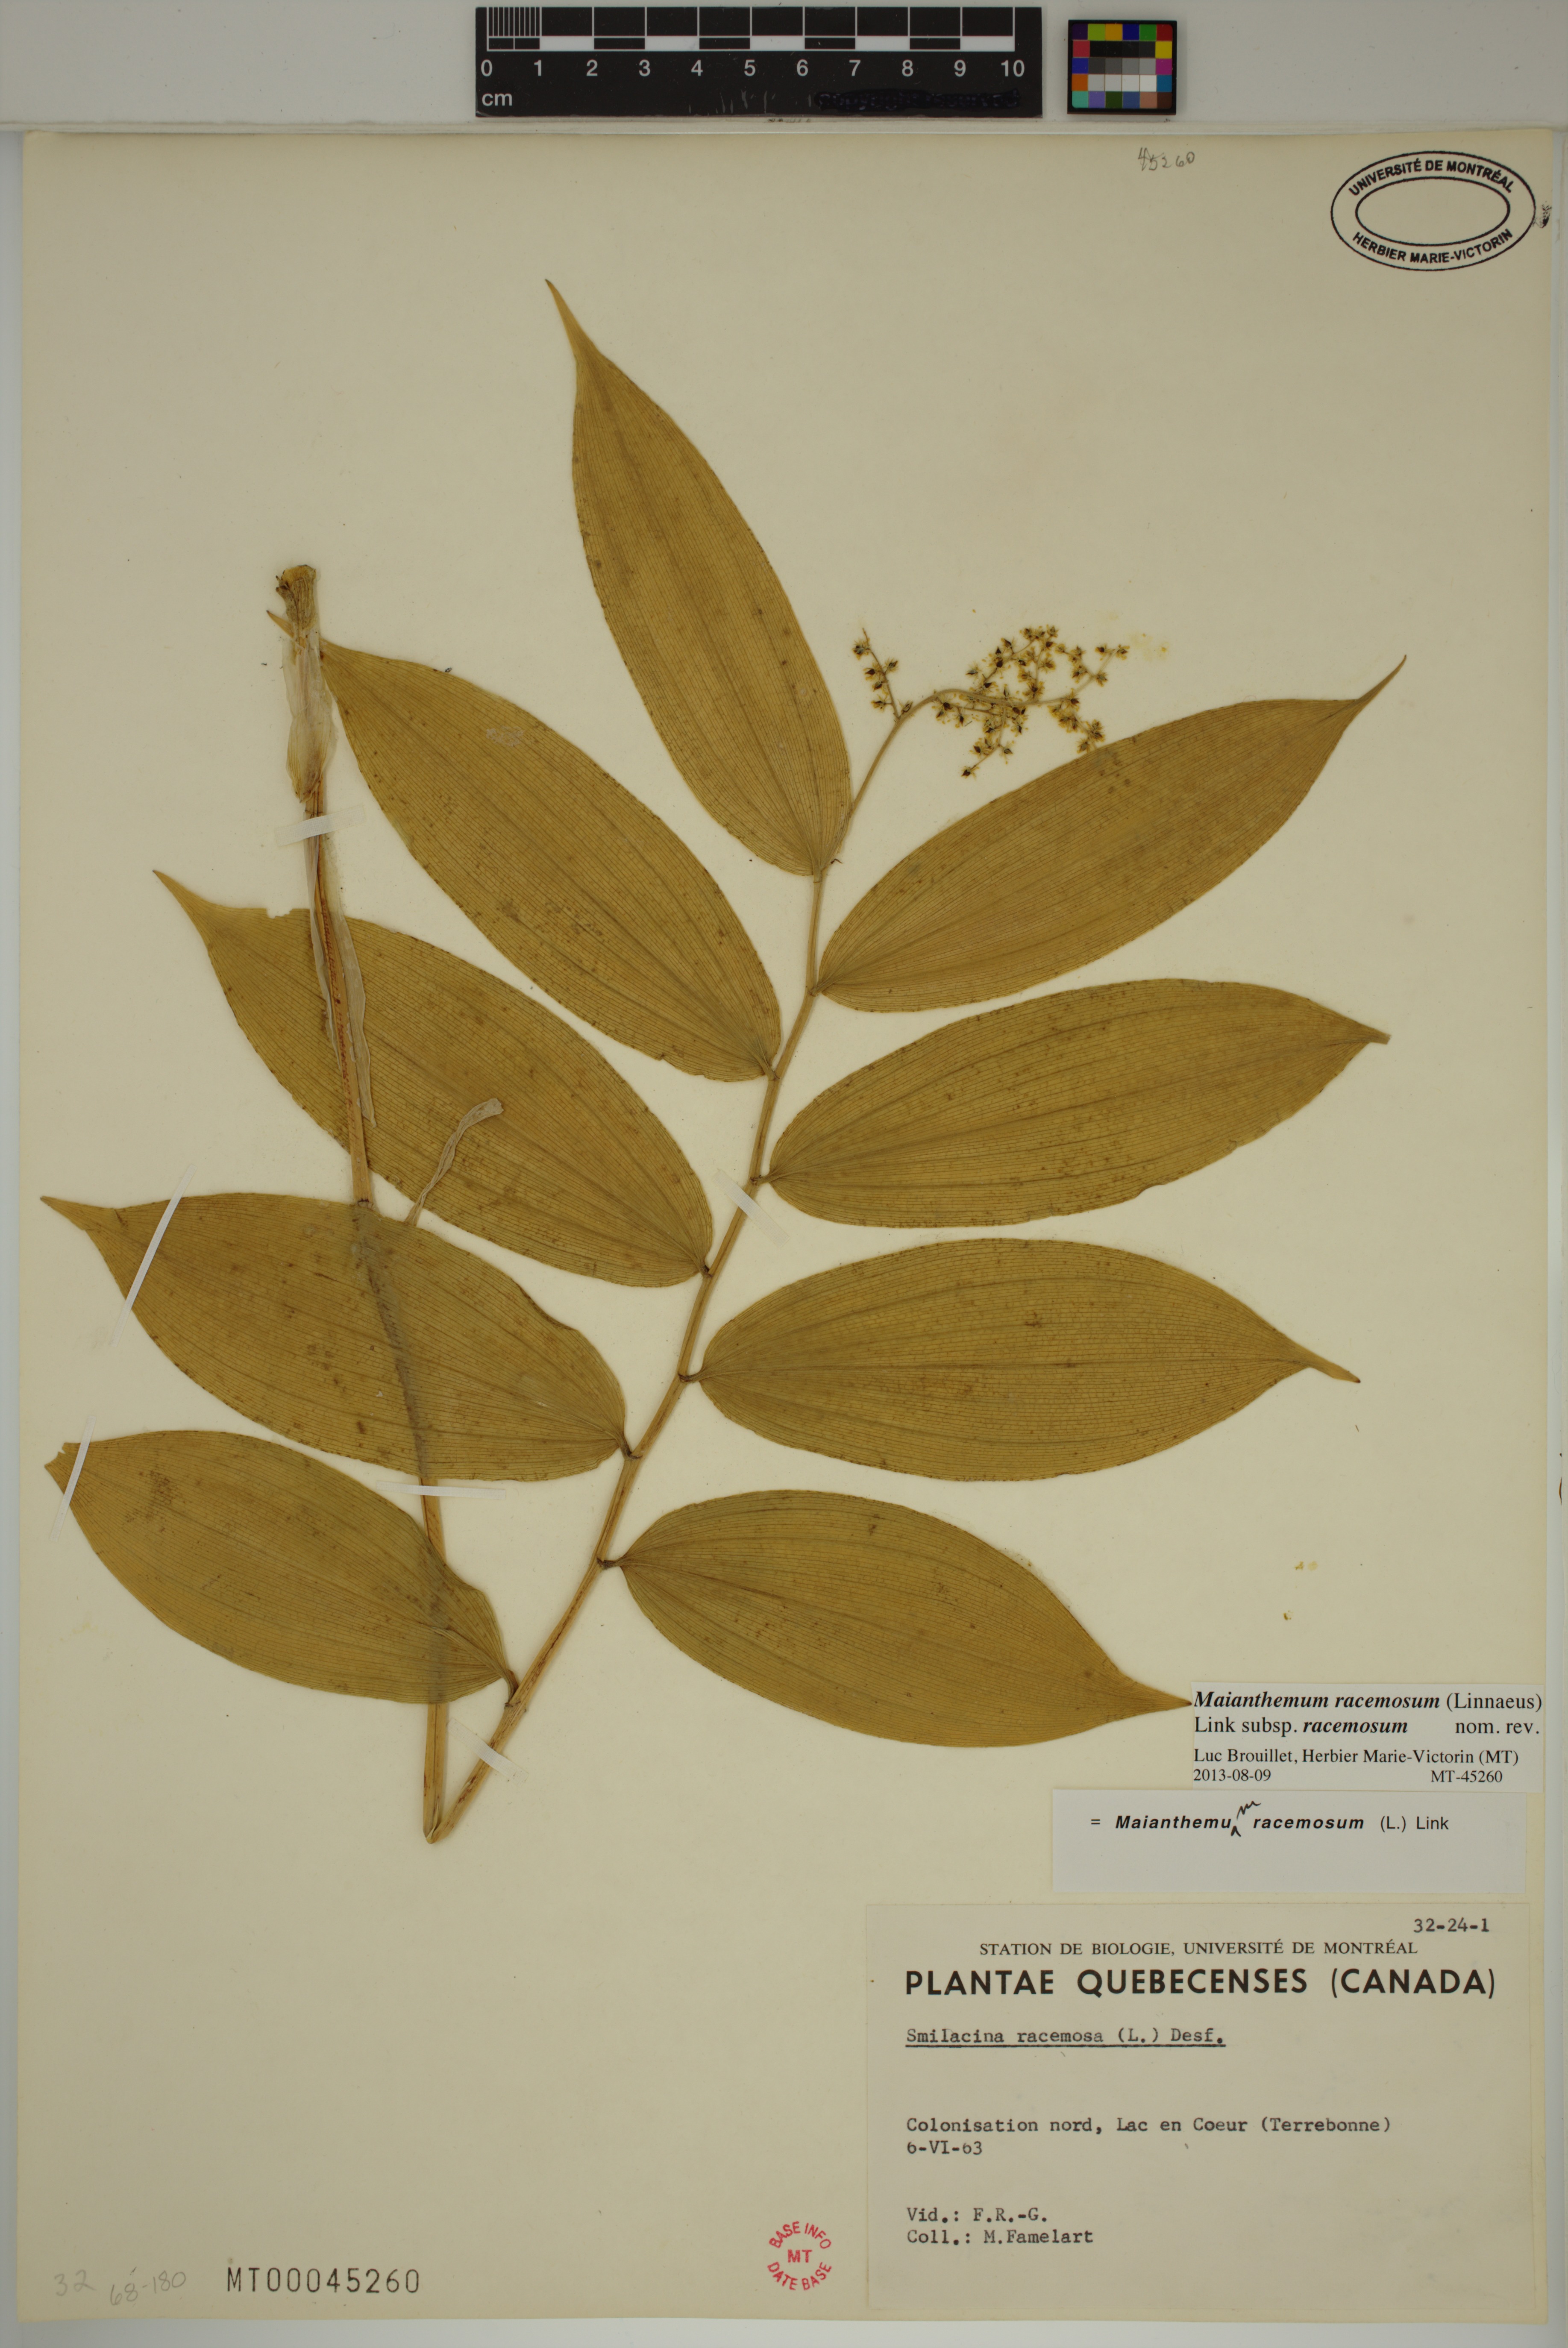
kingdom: Plantae
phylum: Tracheophyta
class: Liliopsida
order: Asparagales
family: Asparagaceae
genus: Maianthemum
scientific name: Maianthemum racemosum
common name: False spikenard
